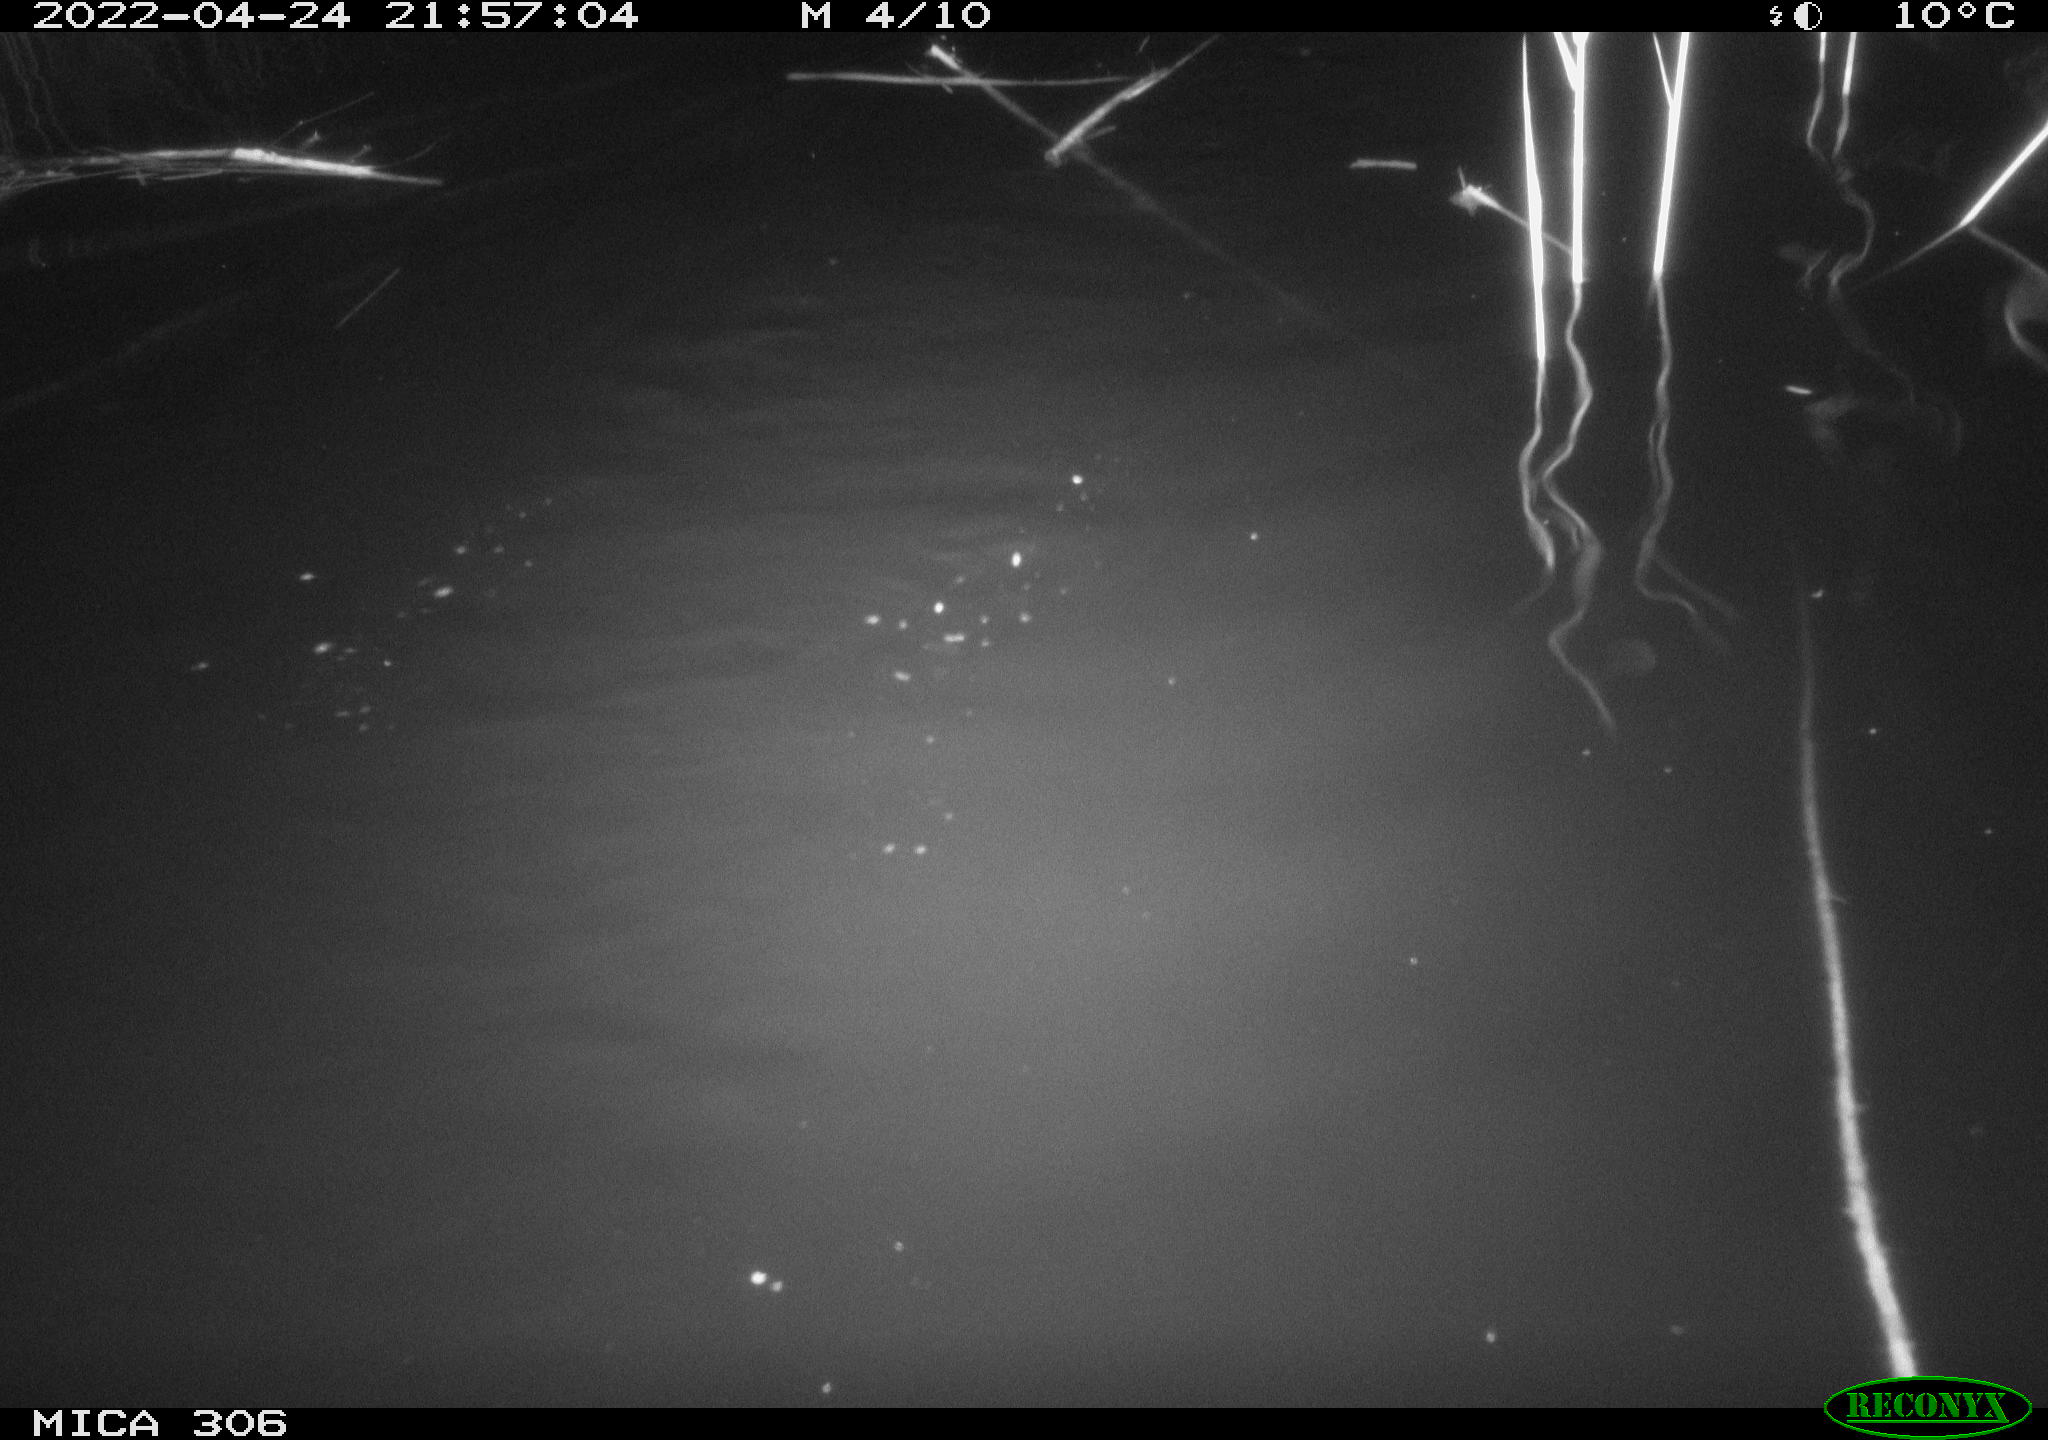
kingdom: Animalia
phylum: Chordata
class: Mammalia
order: Rodentia
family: Cricetidae
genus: Ondatra
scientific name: Ondatra zibethicus
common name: Muskrat
